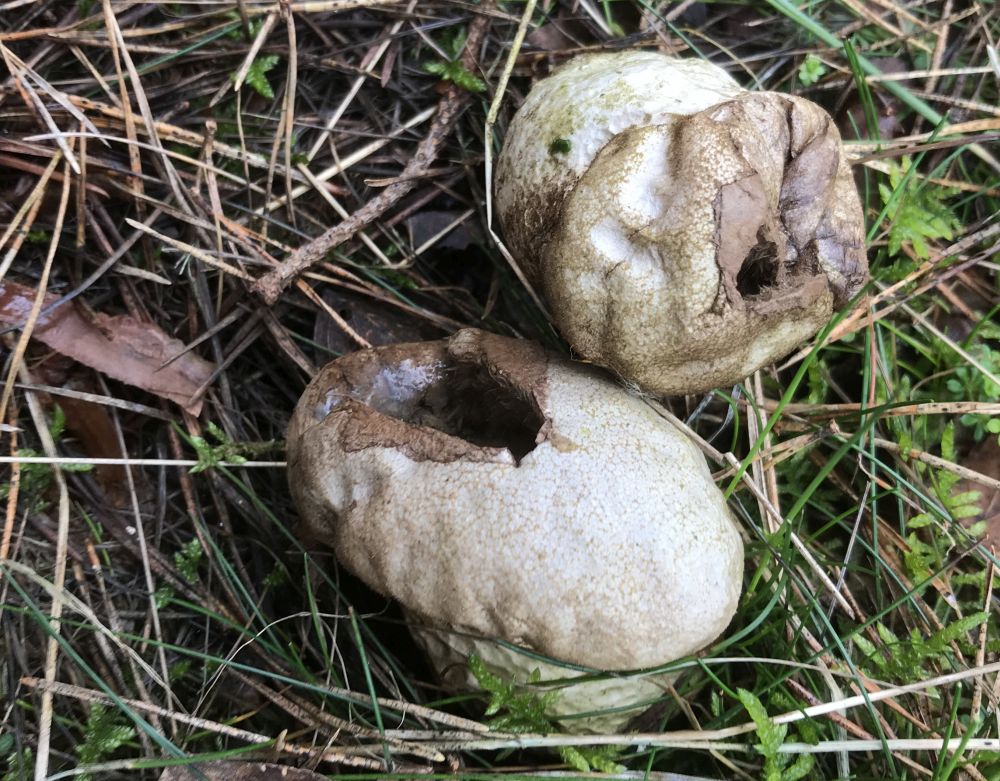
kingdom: Fungi
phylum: Basidiomycota
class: Agaricomycetes
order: Agaricales
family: Lycoperdaceae
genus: Lycoperdon
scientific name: Lycoperdon perlatum
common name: krystal-støvbold
